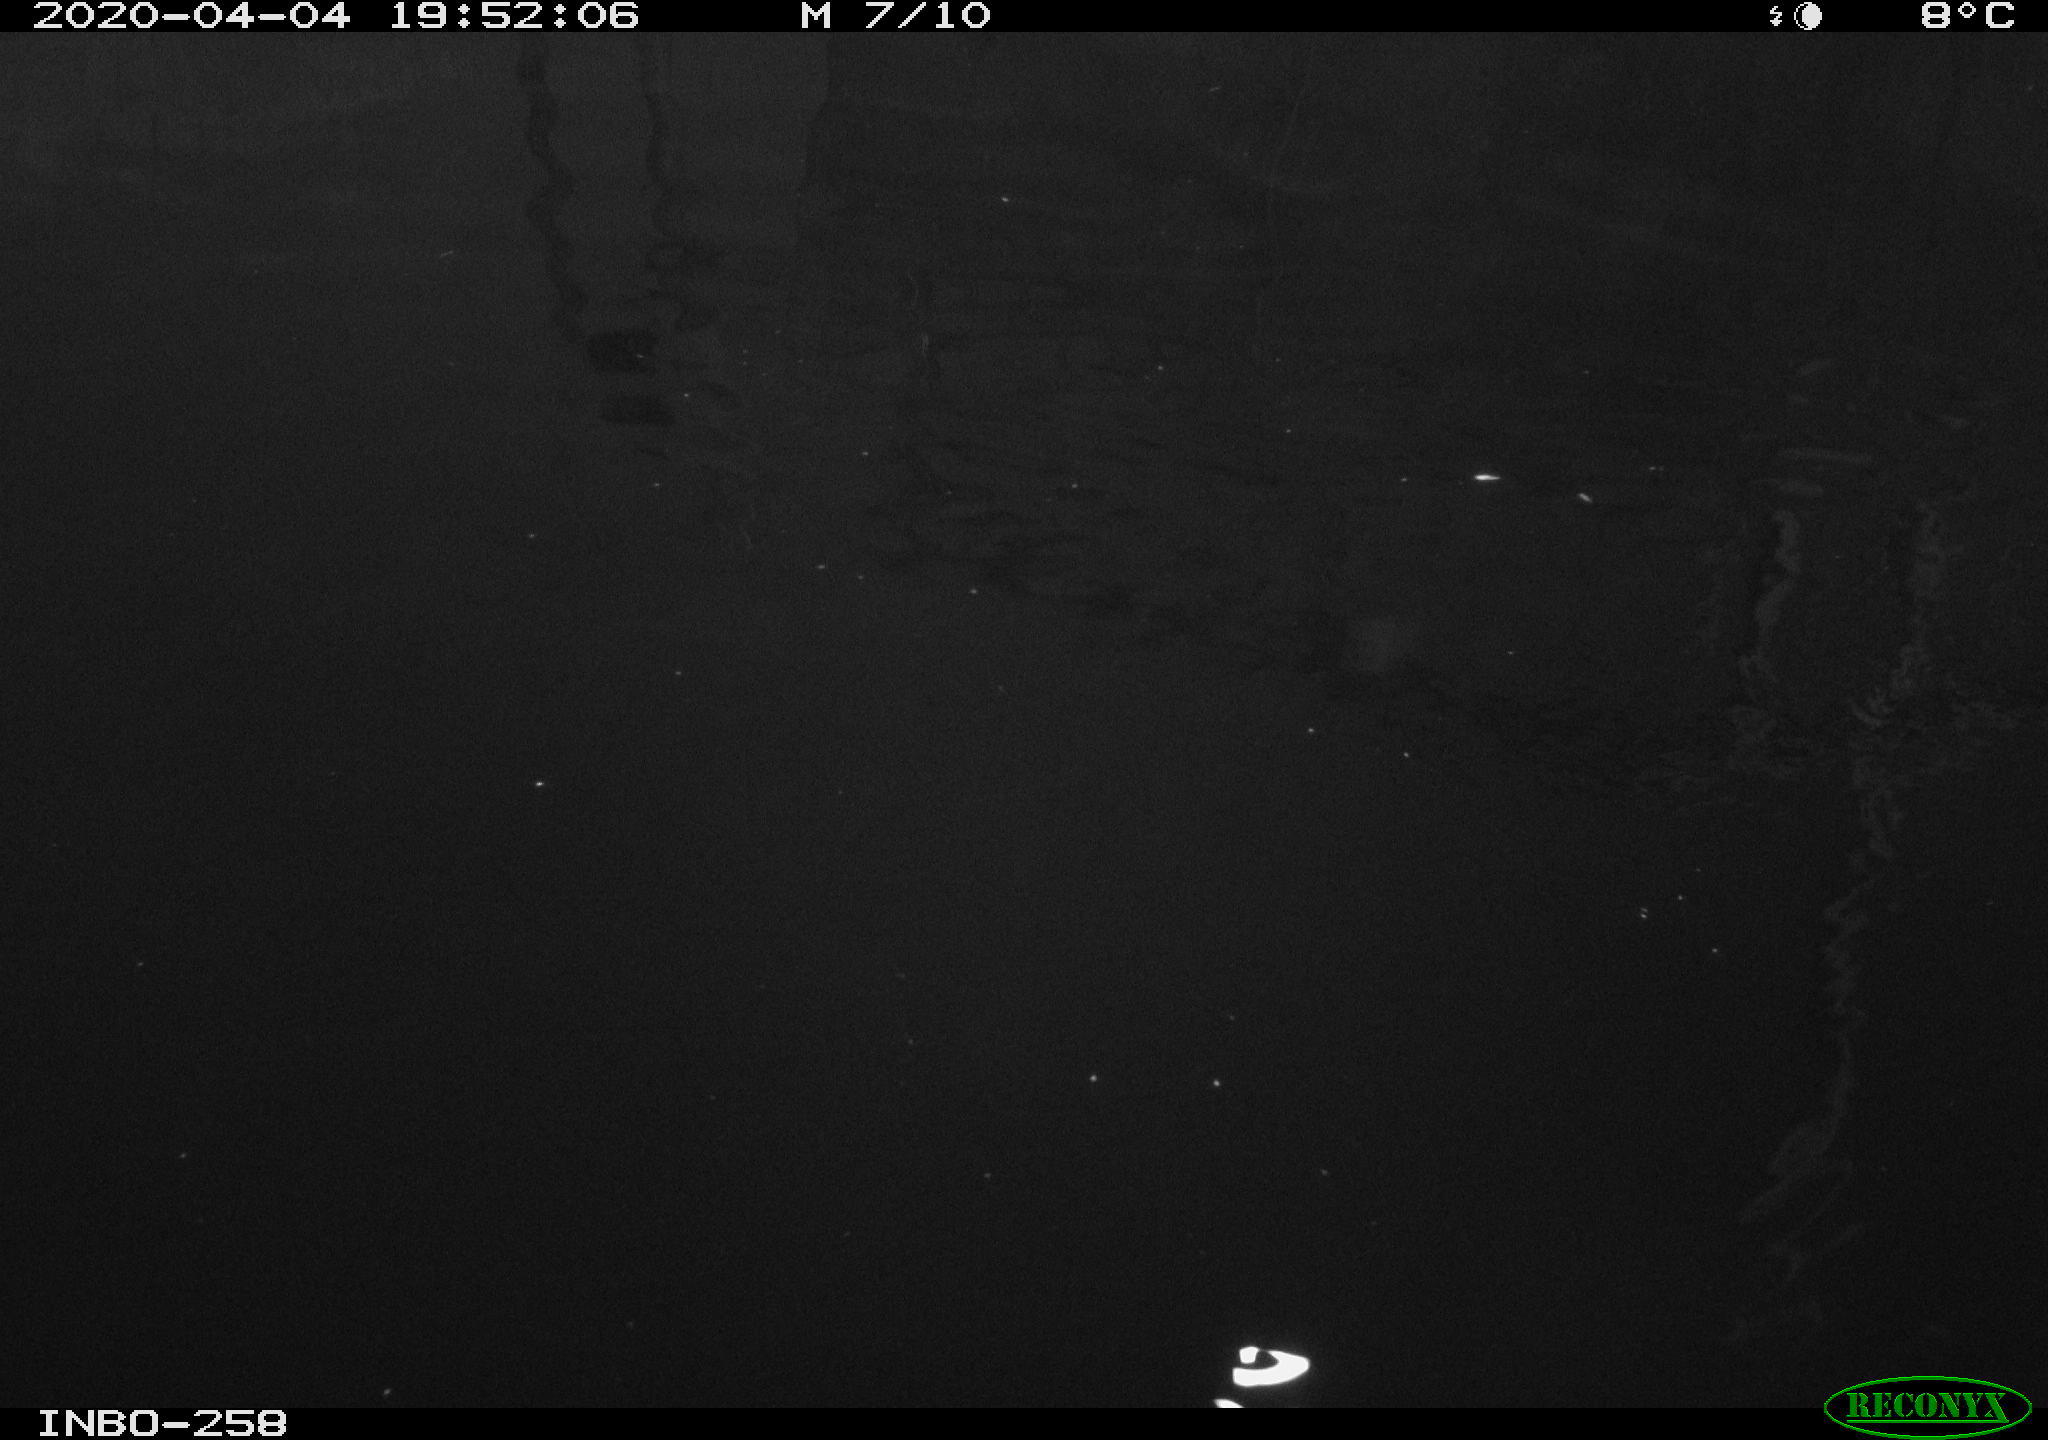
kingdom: Animalia
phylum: Chordata
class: Aves
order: Anseriformes
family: Anatidae
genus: Anas
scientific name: Anas platyrhynchos
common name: Mallard
